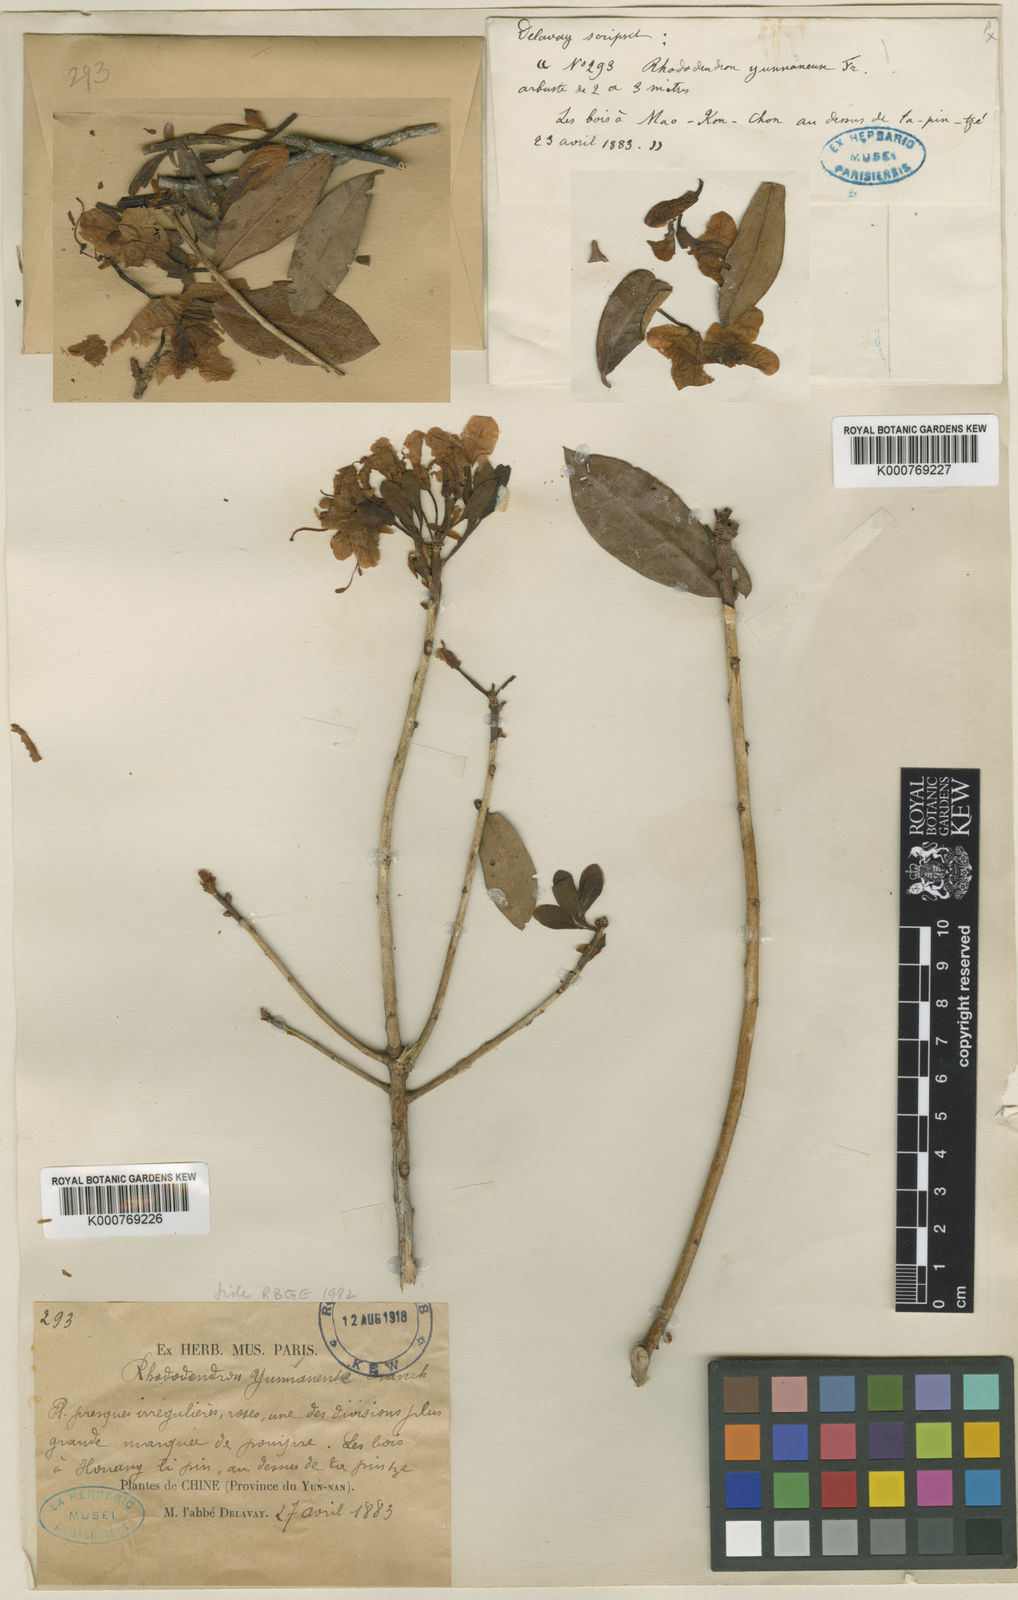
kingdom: Plantae
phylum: Tracheophyta
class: Magnoliopsida
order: Ericales
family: Ericaceae
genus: Rhododendron
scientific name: Rhododendron yunnanense
